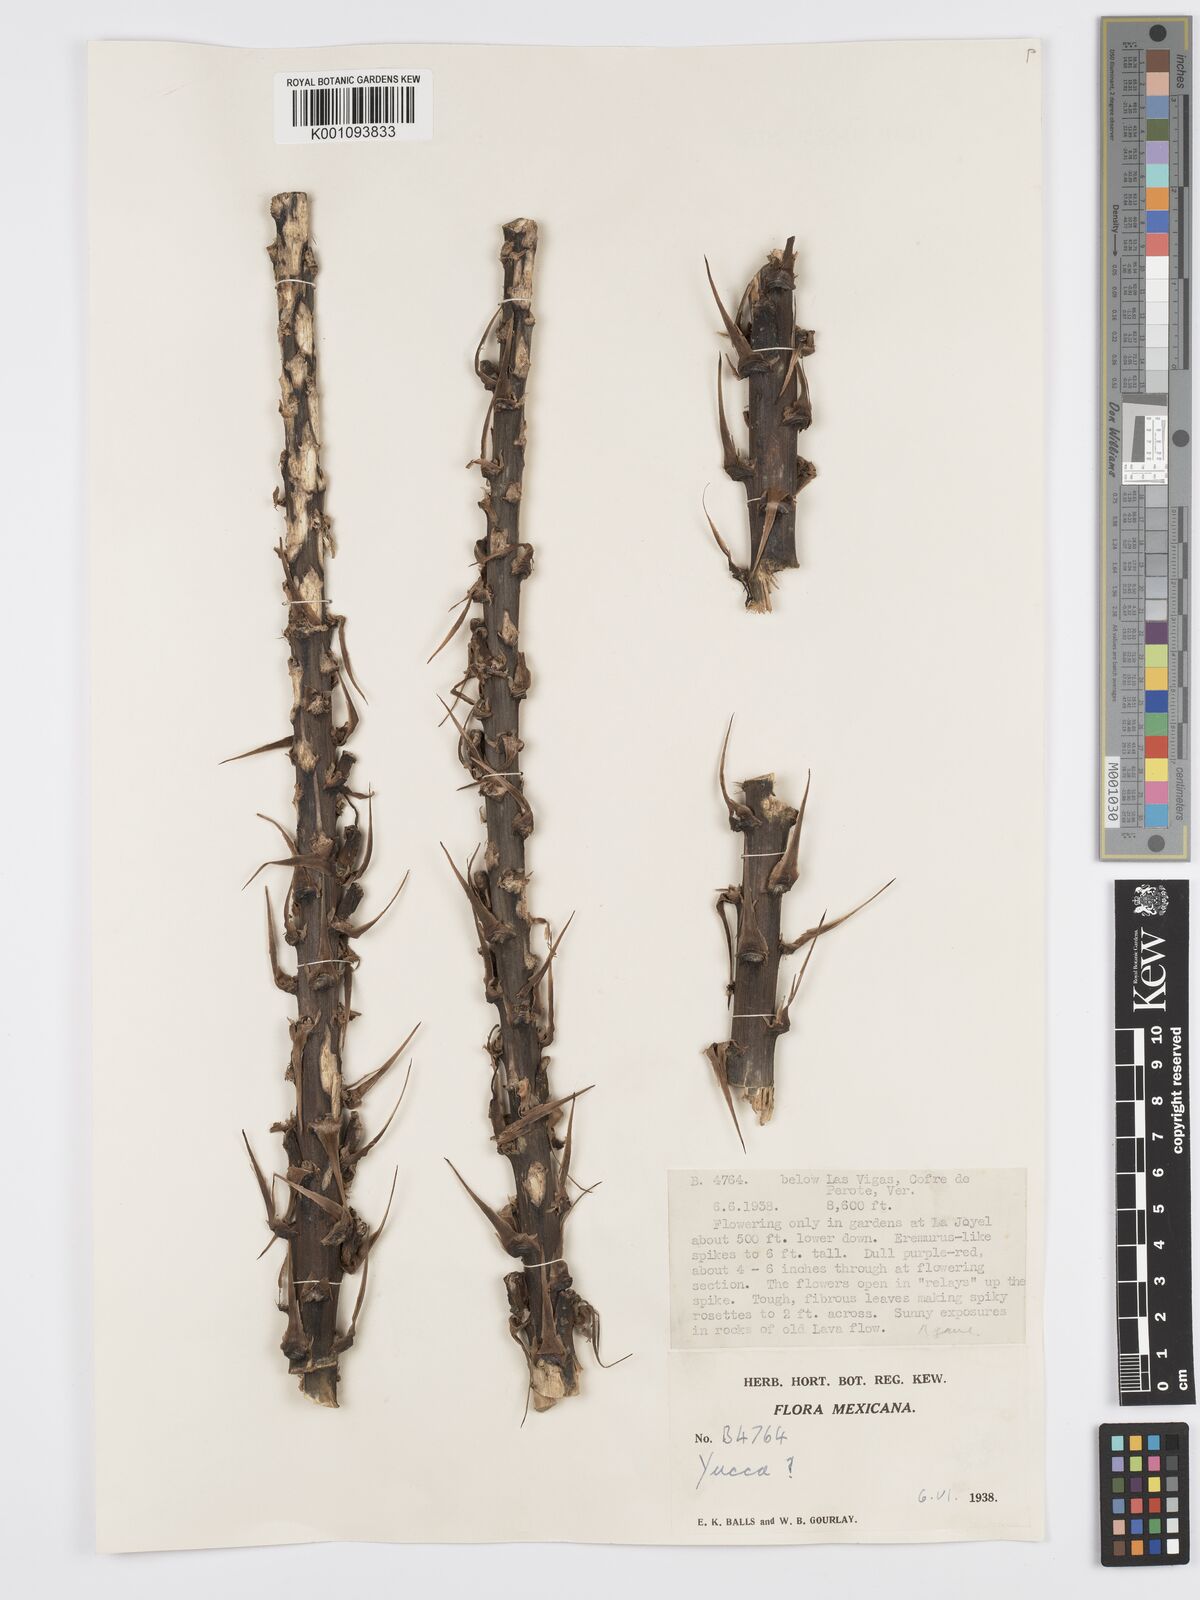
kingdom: Plantae
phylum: Tracheophyta
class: Liliopsida
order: Asparagales
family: Asparagaceae
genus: Yucca
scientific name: Yucca
